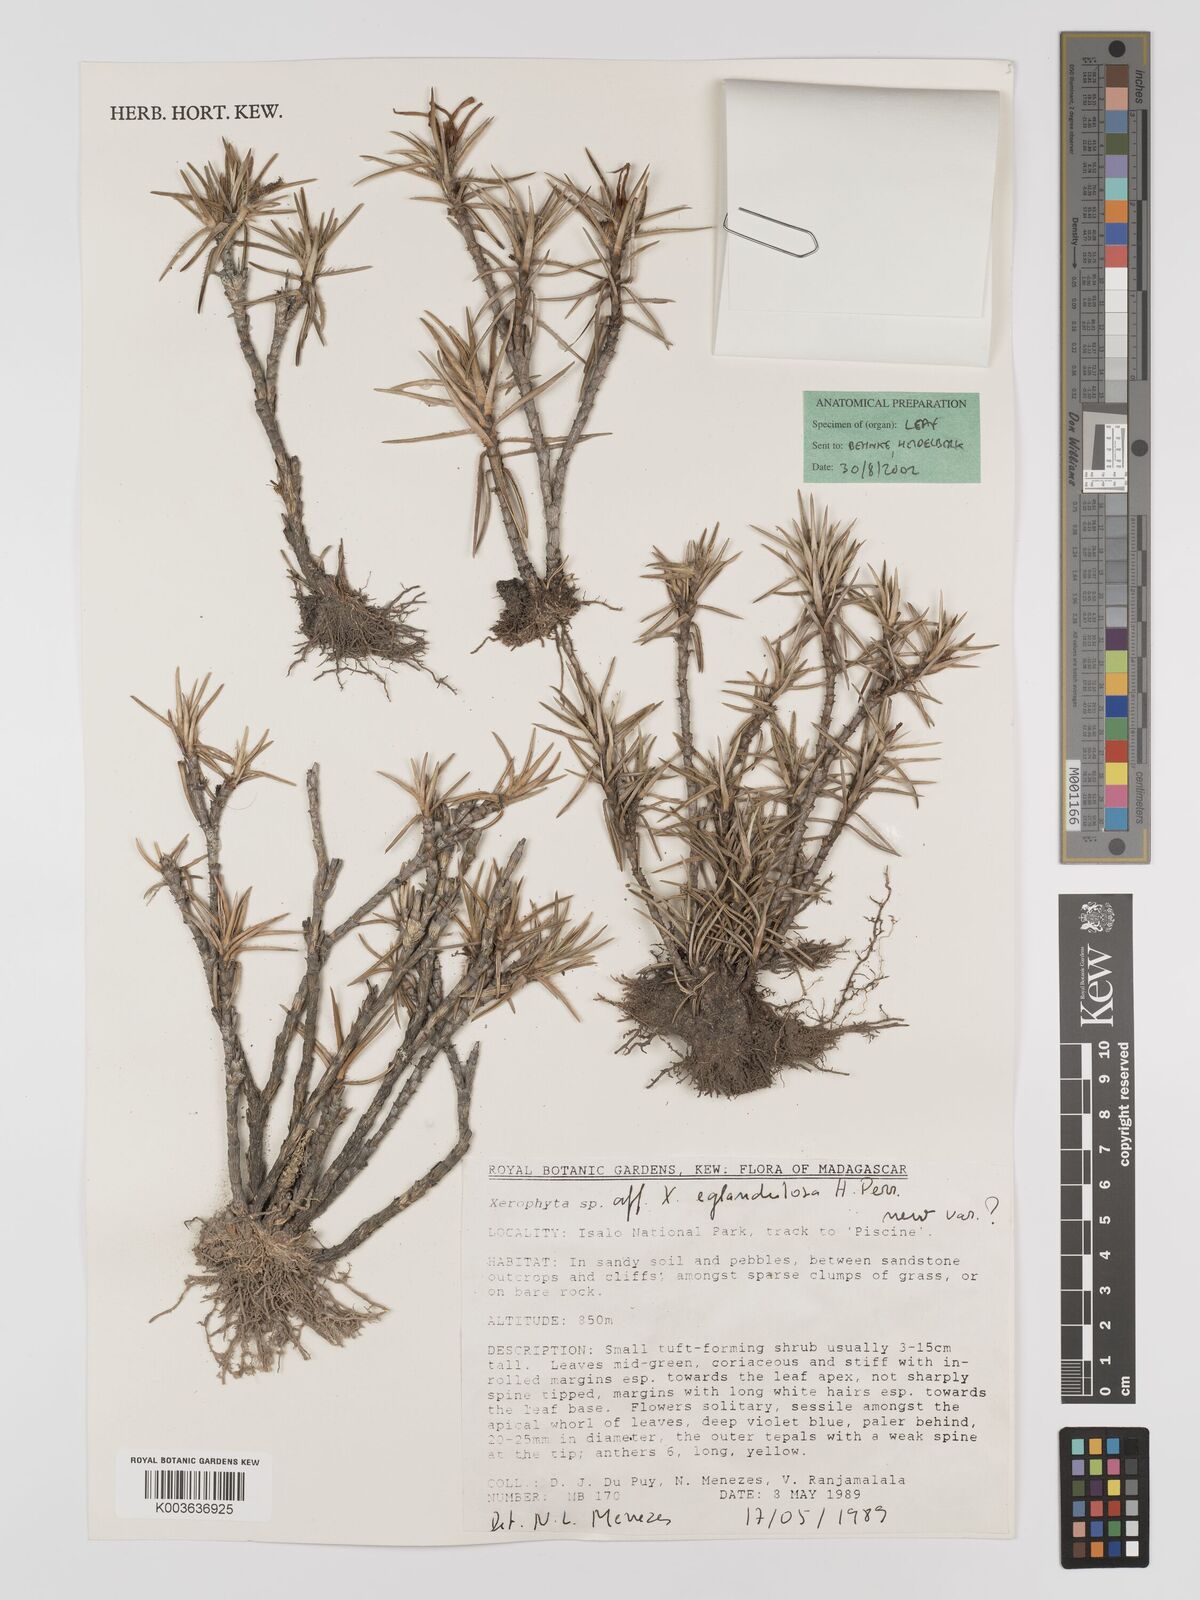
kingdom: Plantae
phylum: Tracheophyta
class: Liliopsida
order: Pandanales
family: Velloziaceae
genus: Xerophyta
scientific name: Xerophyta eglandulosa
